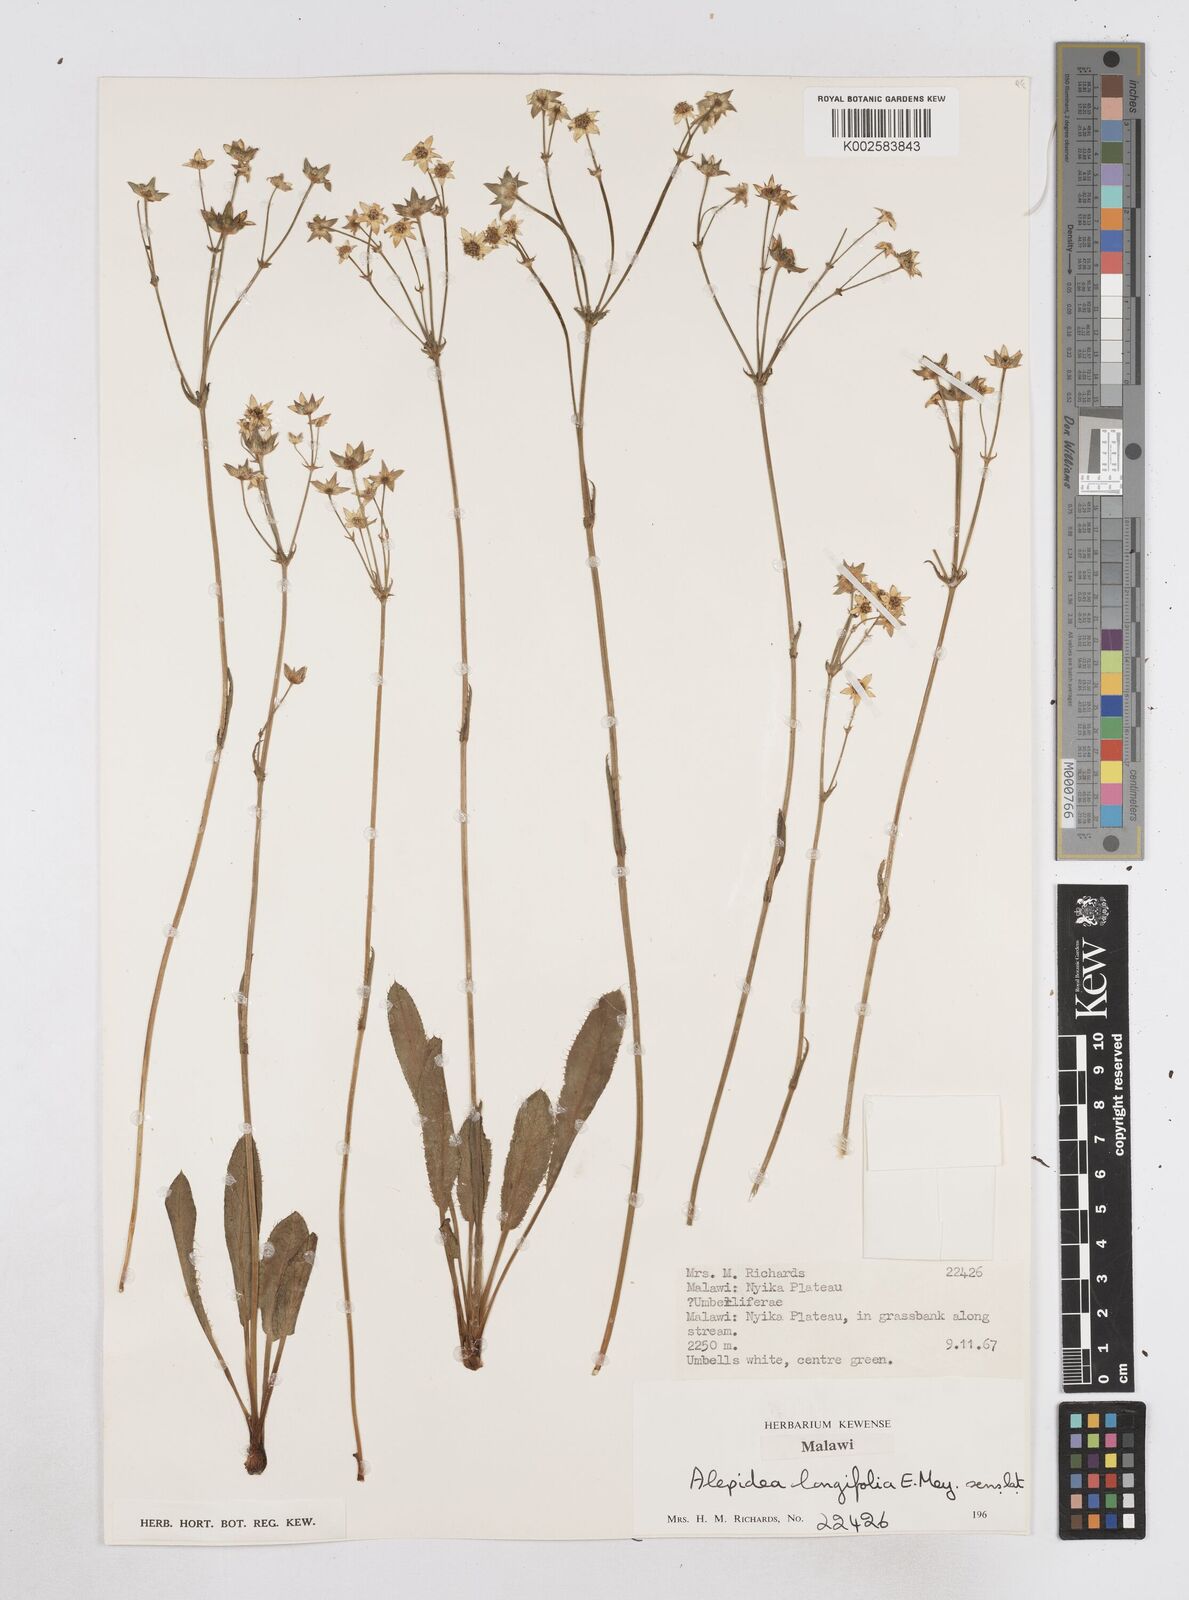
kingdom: Plantae
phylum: Tracheophyta
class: Magnoliopsida
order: Apiales
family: Apiaceae
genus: Alepidea
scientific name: Alepidea peduncularis
